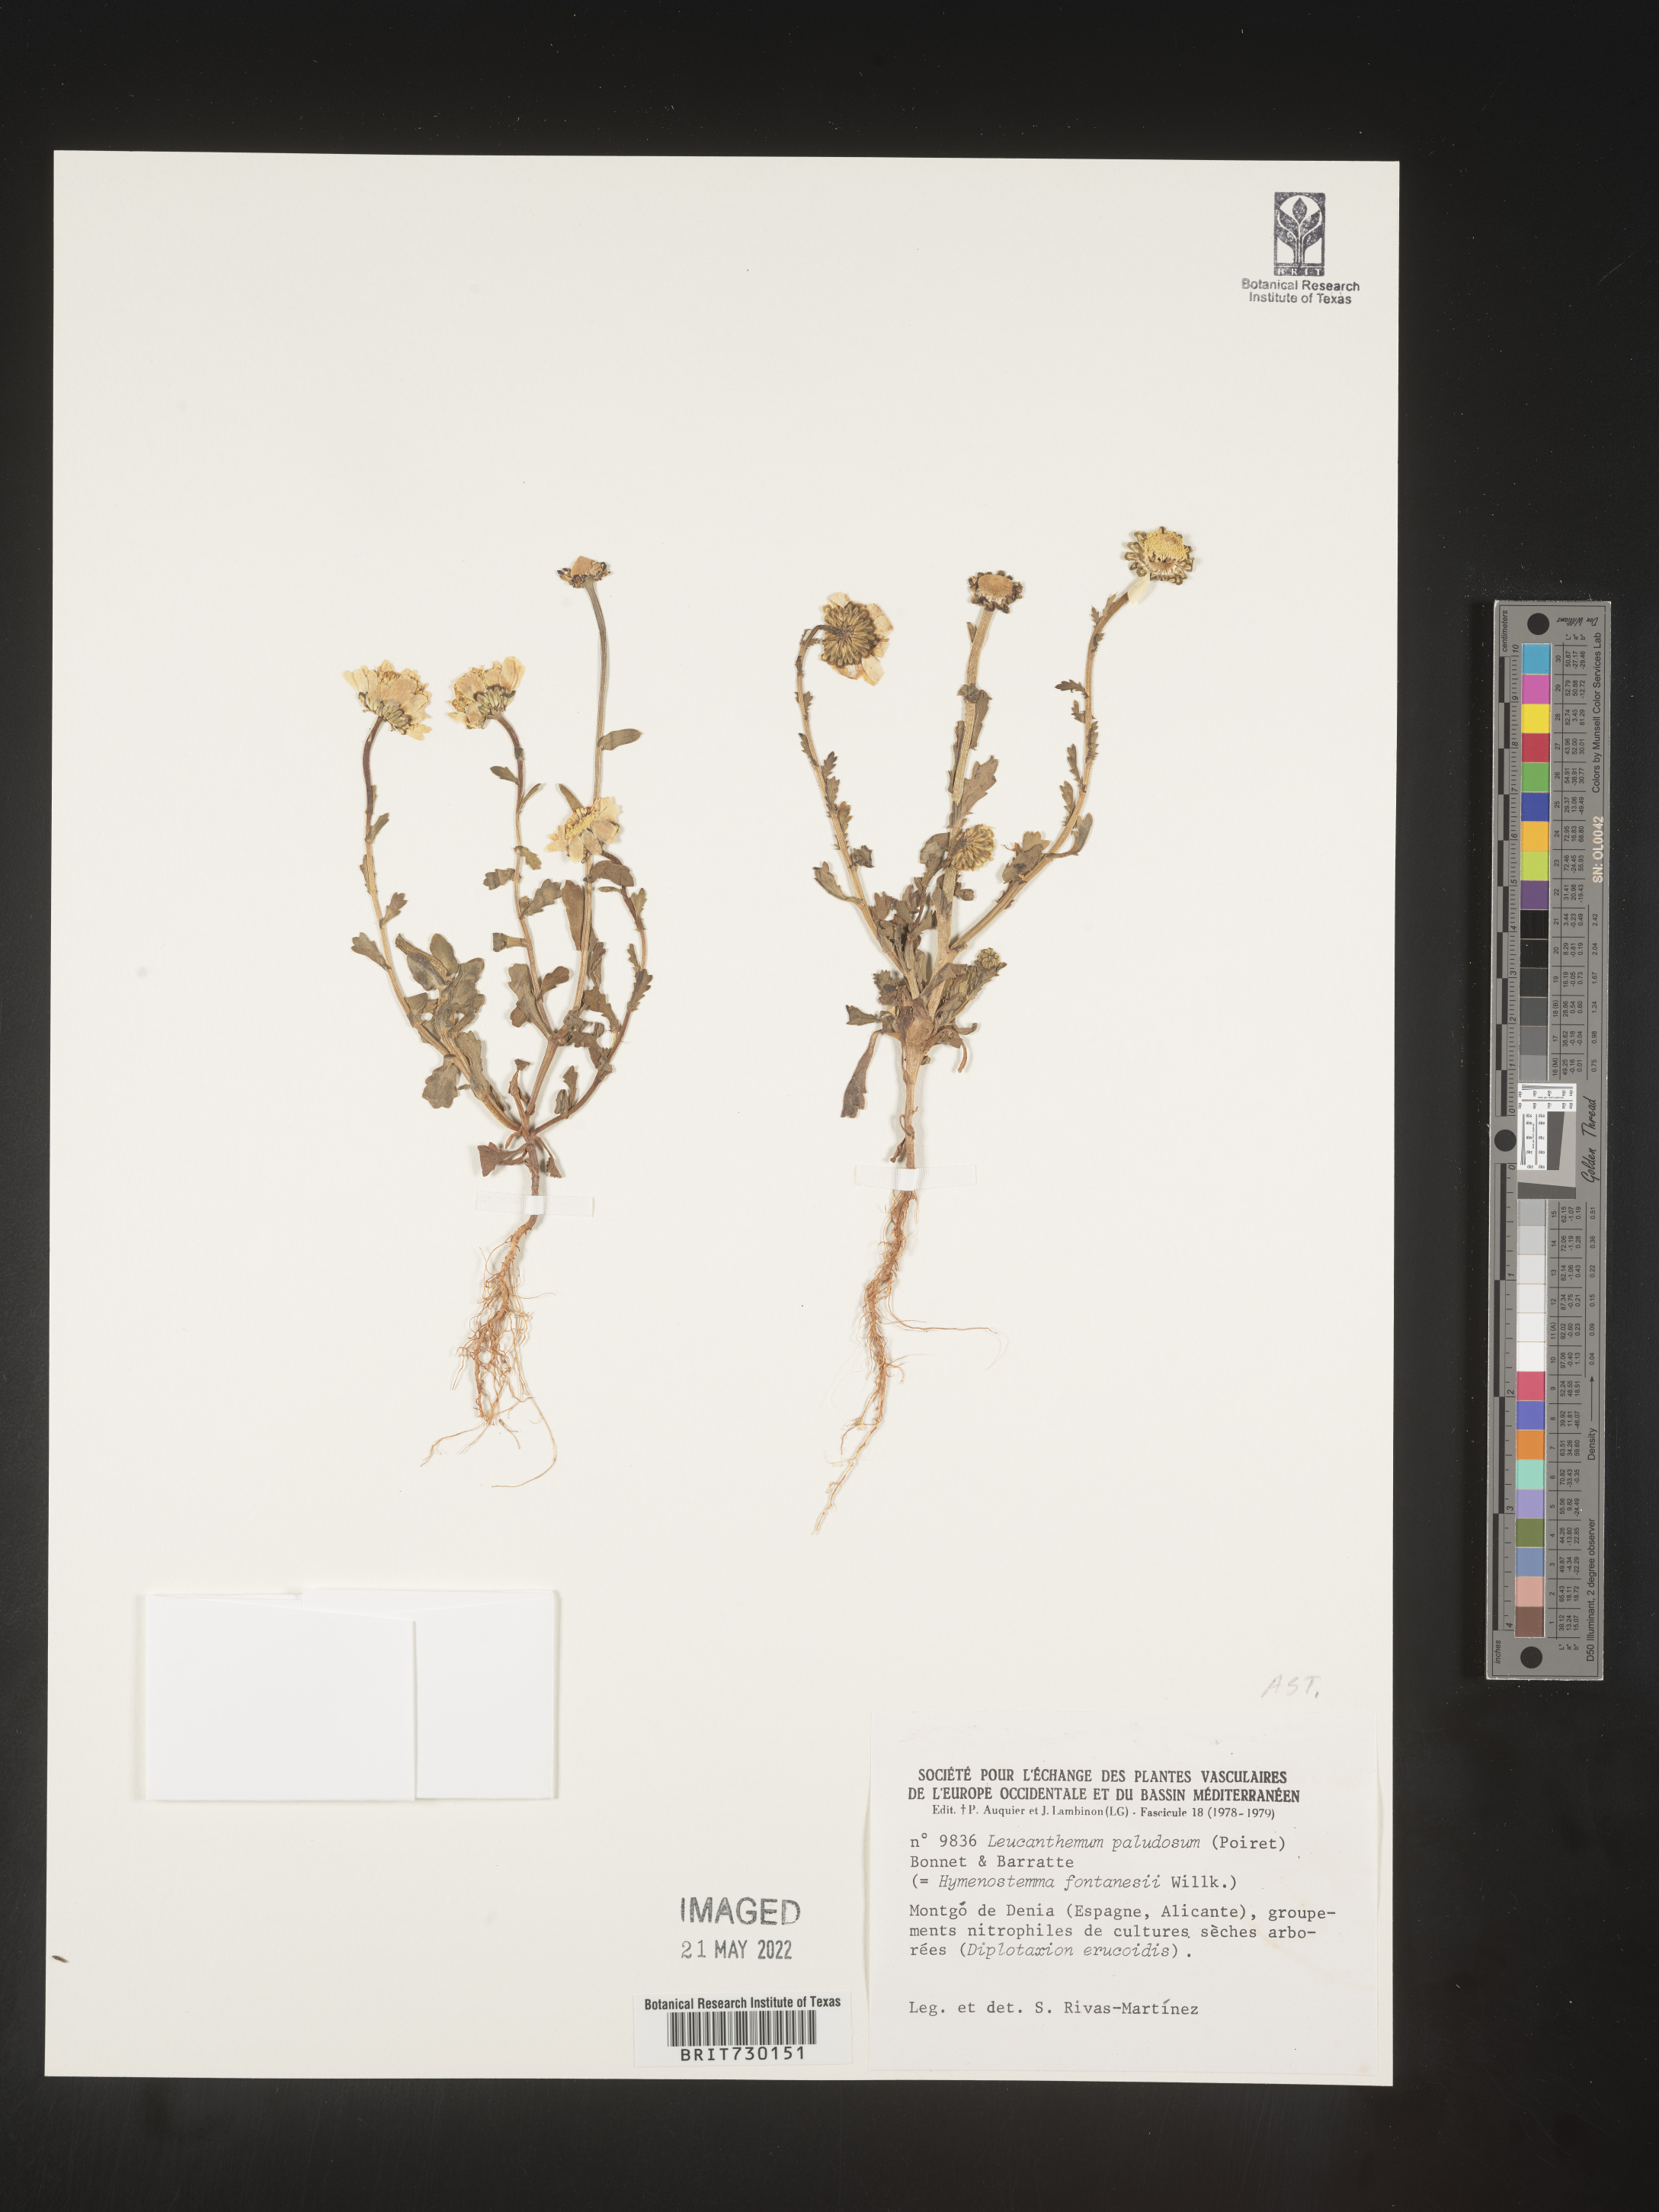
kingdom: Plantae
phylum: Tracheophyta
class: Magnoliopsida
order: Asterales
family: Asteraceae
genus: Leucanthemum
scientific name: Leucanthemum
